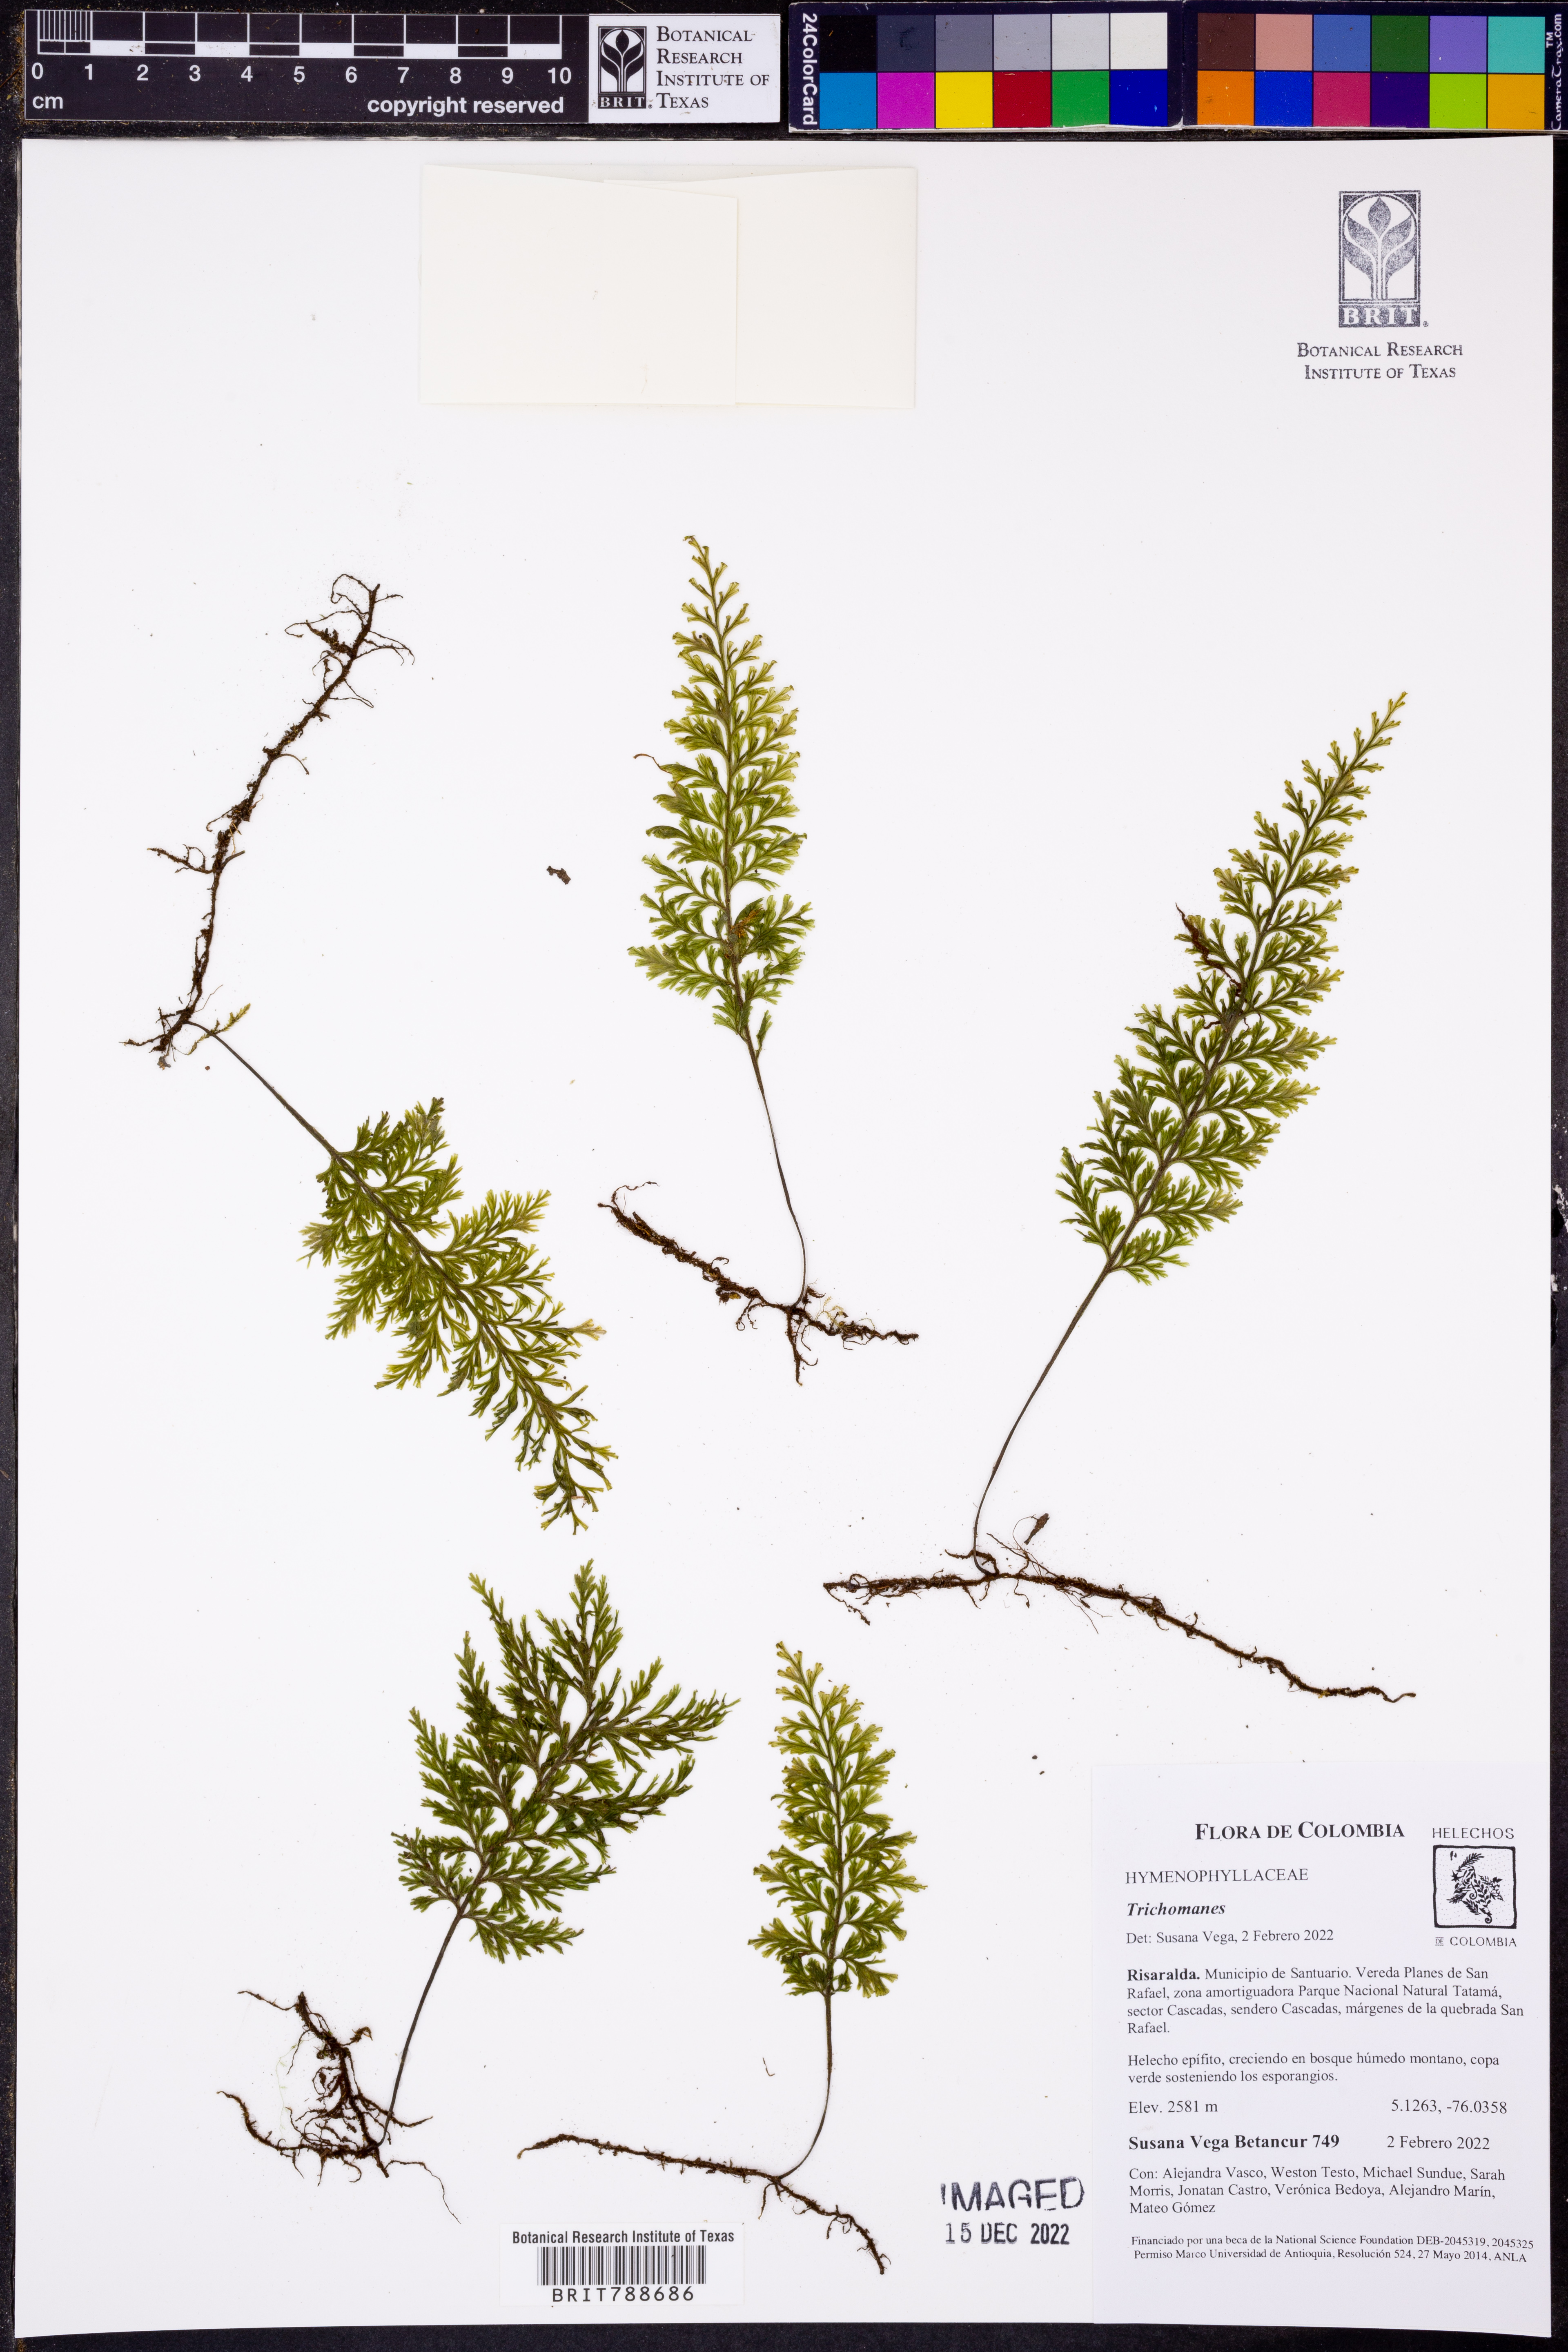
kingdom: Plantae
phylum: Tracheophyta
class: Polypodiopsida
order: Hymenophyllales
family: Hymenophyllaceae
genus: Polyphlebium
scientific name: Polyphlebium pyxidiferum
